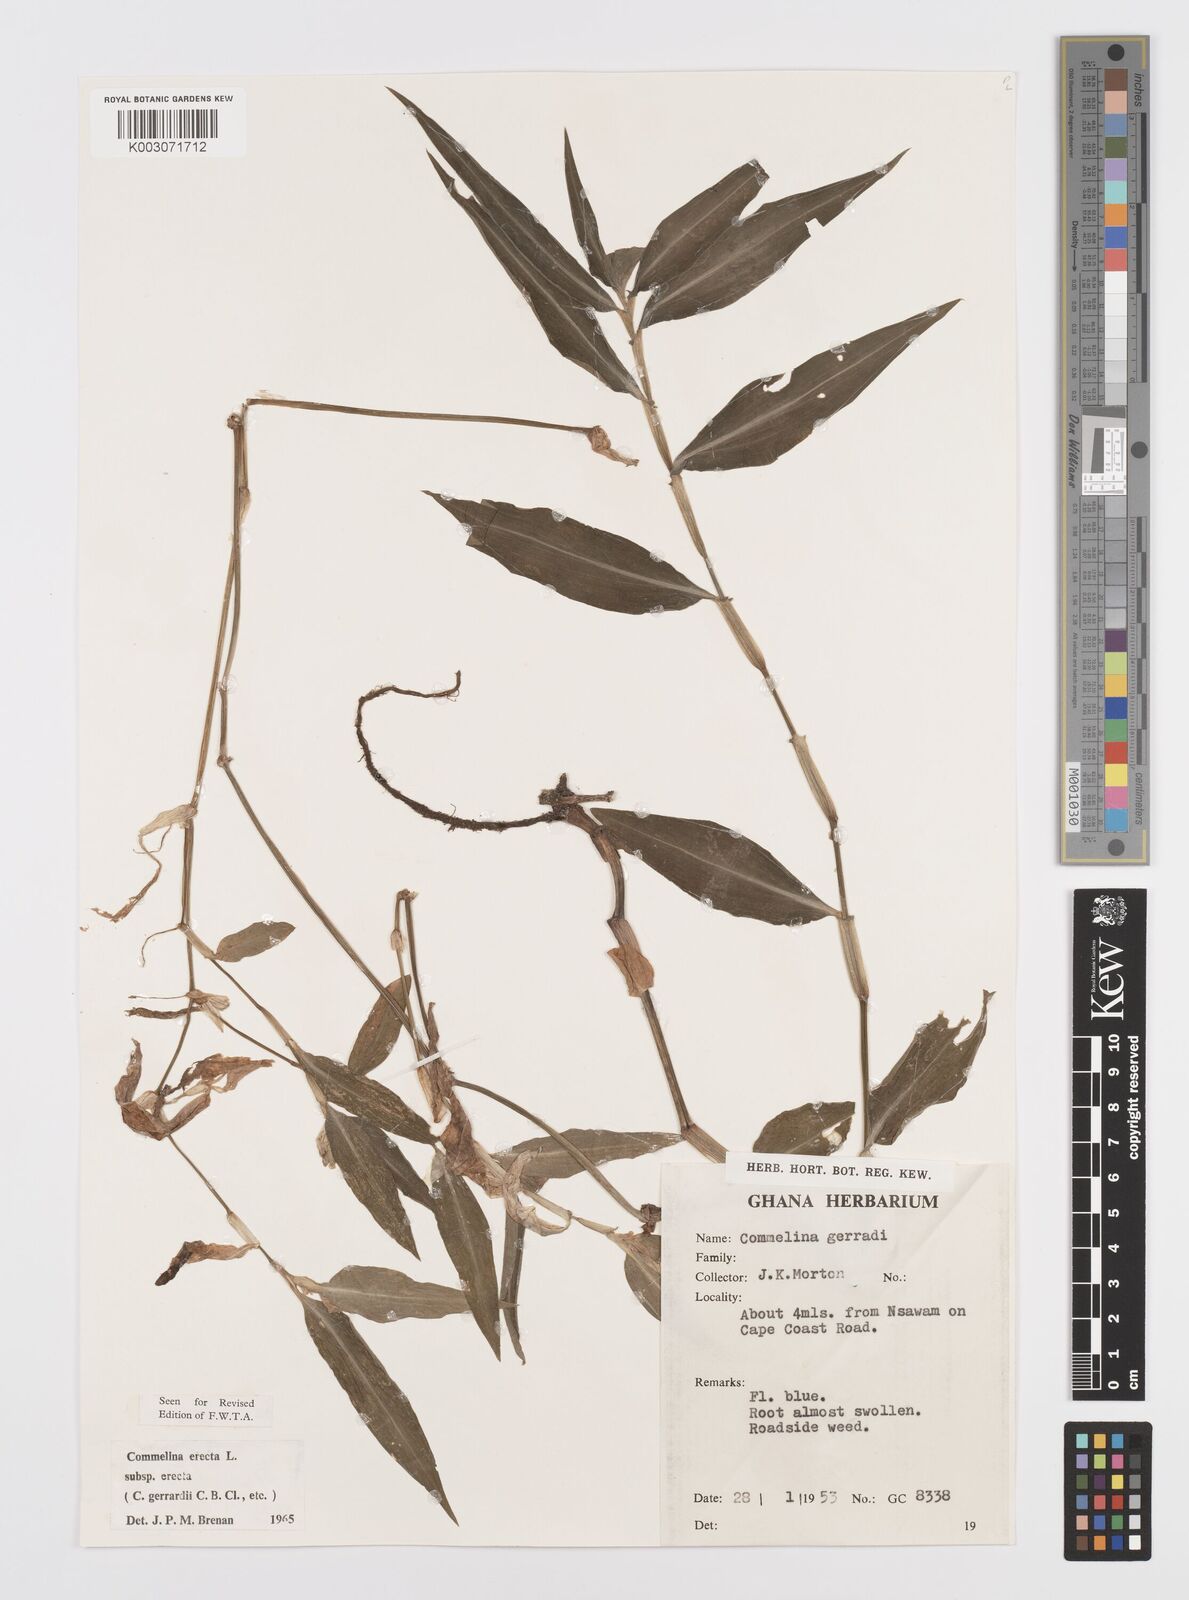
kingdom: Plantae
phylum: Tracheophyta
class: Liliopsida
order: Commelinales
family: Commelinaceae
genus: Commelina
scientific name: Commelina erecta
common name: Blousel blommetjie
